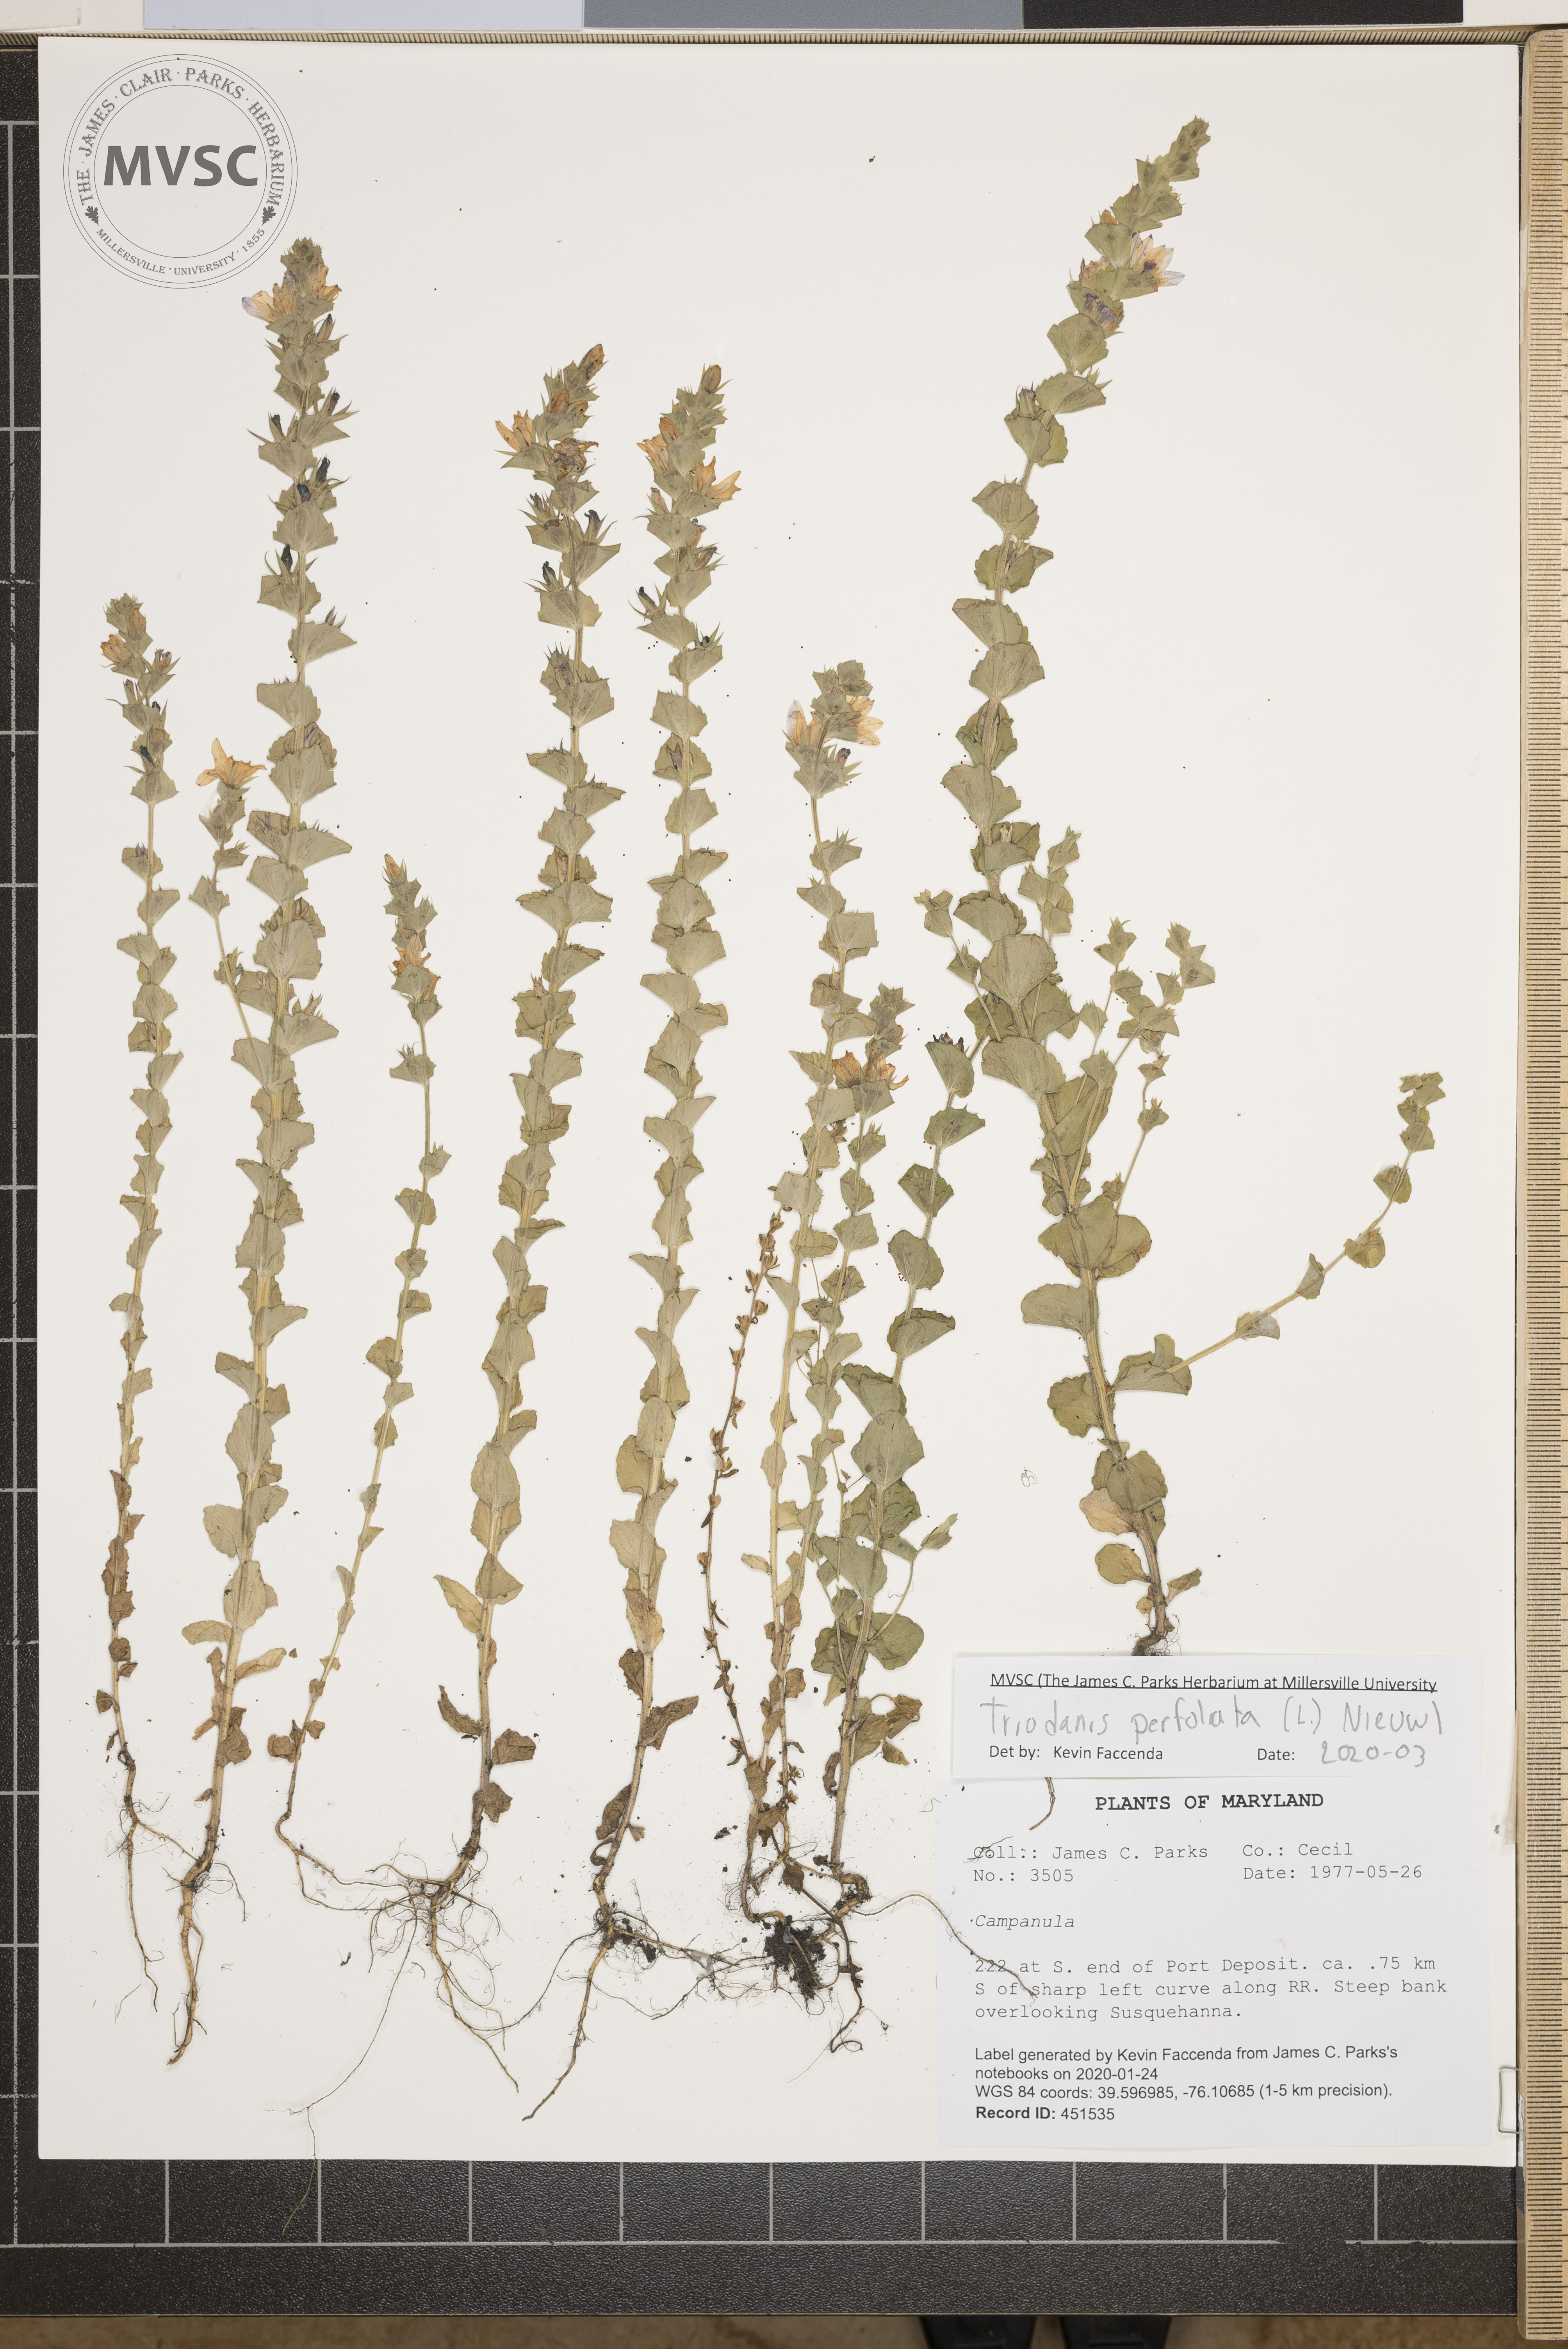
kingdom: Plantae
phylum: Tracheophyta
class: Magnoliopsida
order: Asterales
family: Campanulaceae
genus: Triodanis
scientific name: Triodanis perfoliata
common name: Clasping venus' looking-glass
